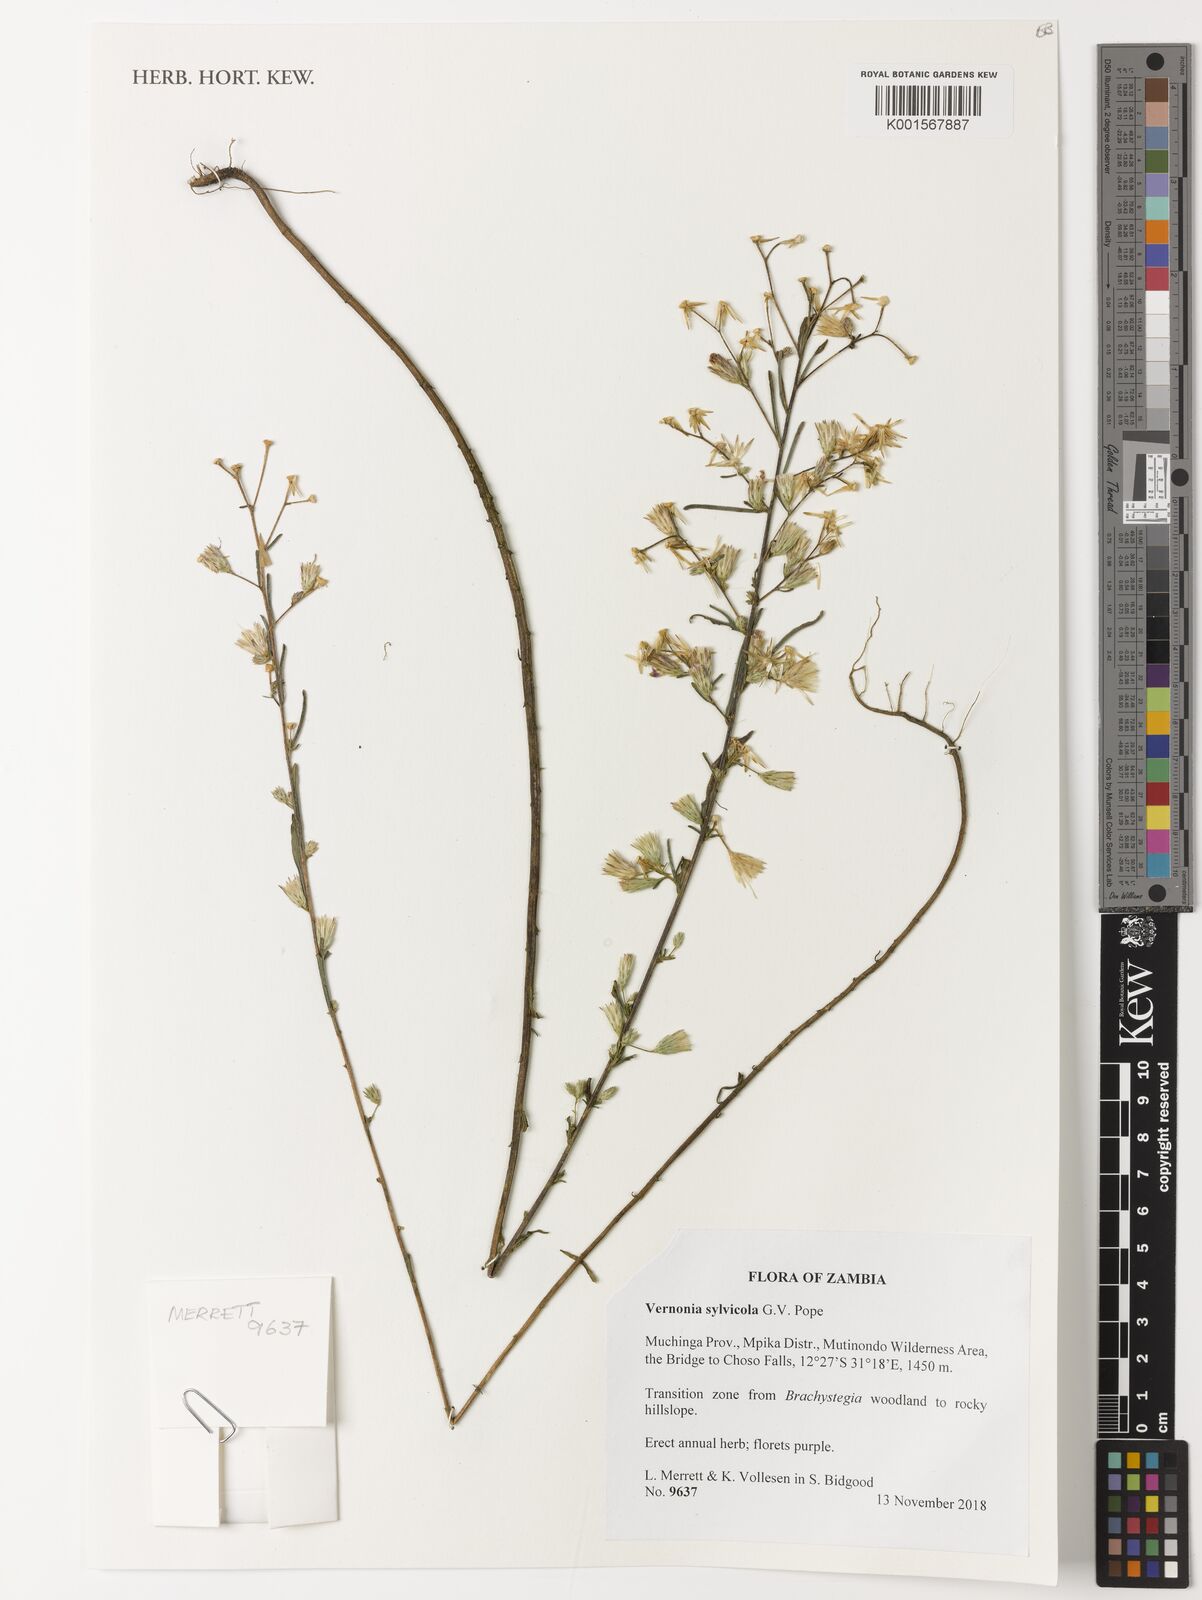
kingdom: Plantae
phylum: Tracheophyta
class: Magnoliopsida
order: Asterales
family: Asteraceae
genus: Crystallopollen
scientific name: Crystallopollen sylvicola
